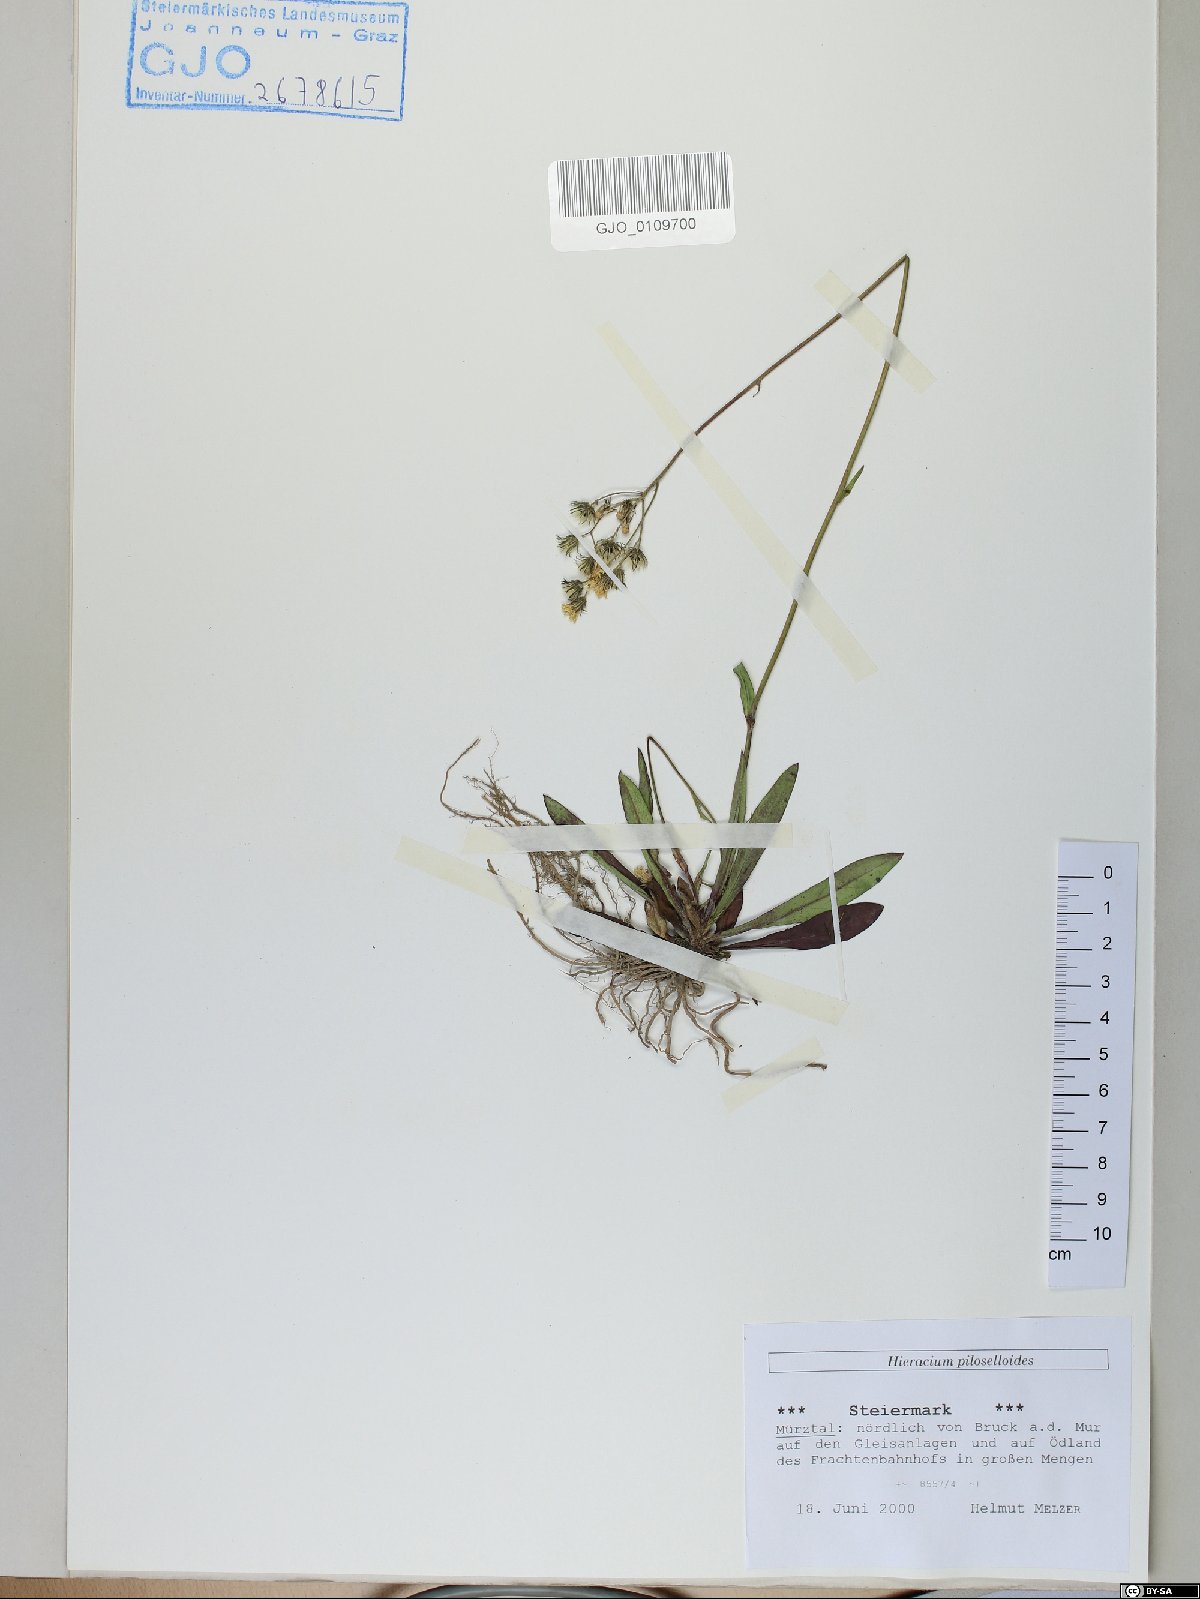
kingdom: Plantae
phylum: Tracheophyta
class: Magnoliopsida
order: Asterales
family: Asteraceae
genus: Pilosella
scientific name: Pilosella piloselloides
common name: Glaucous king-devil
